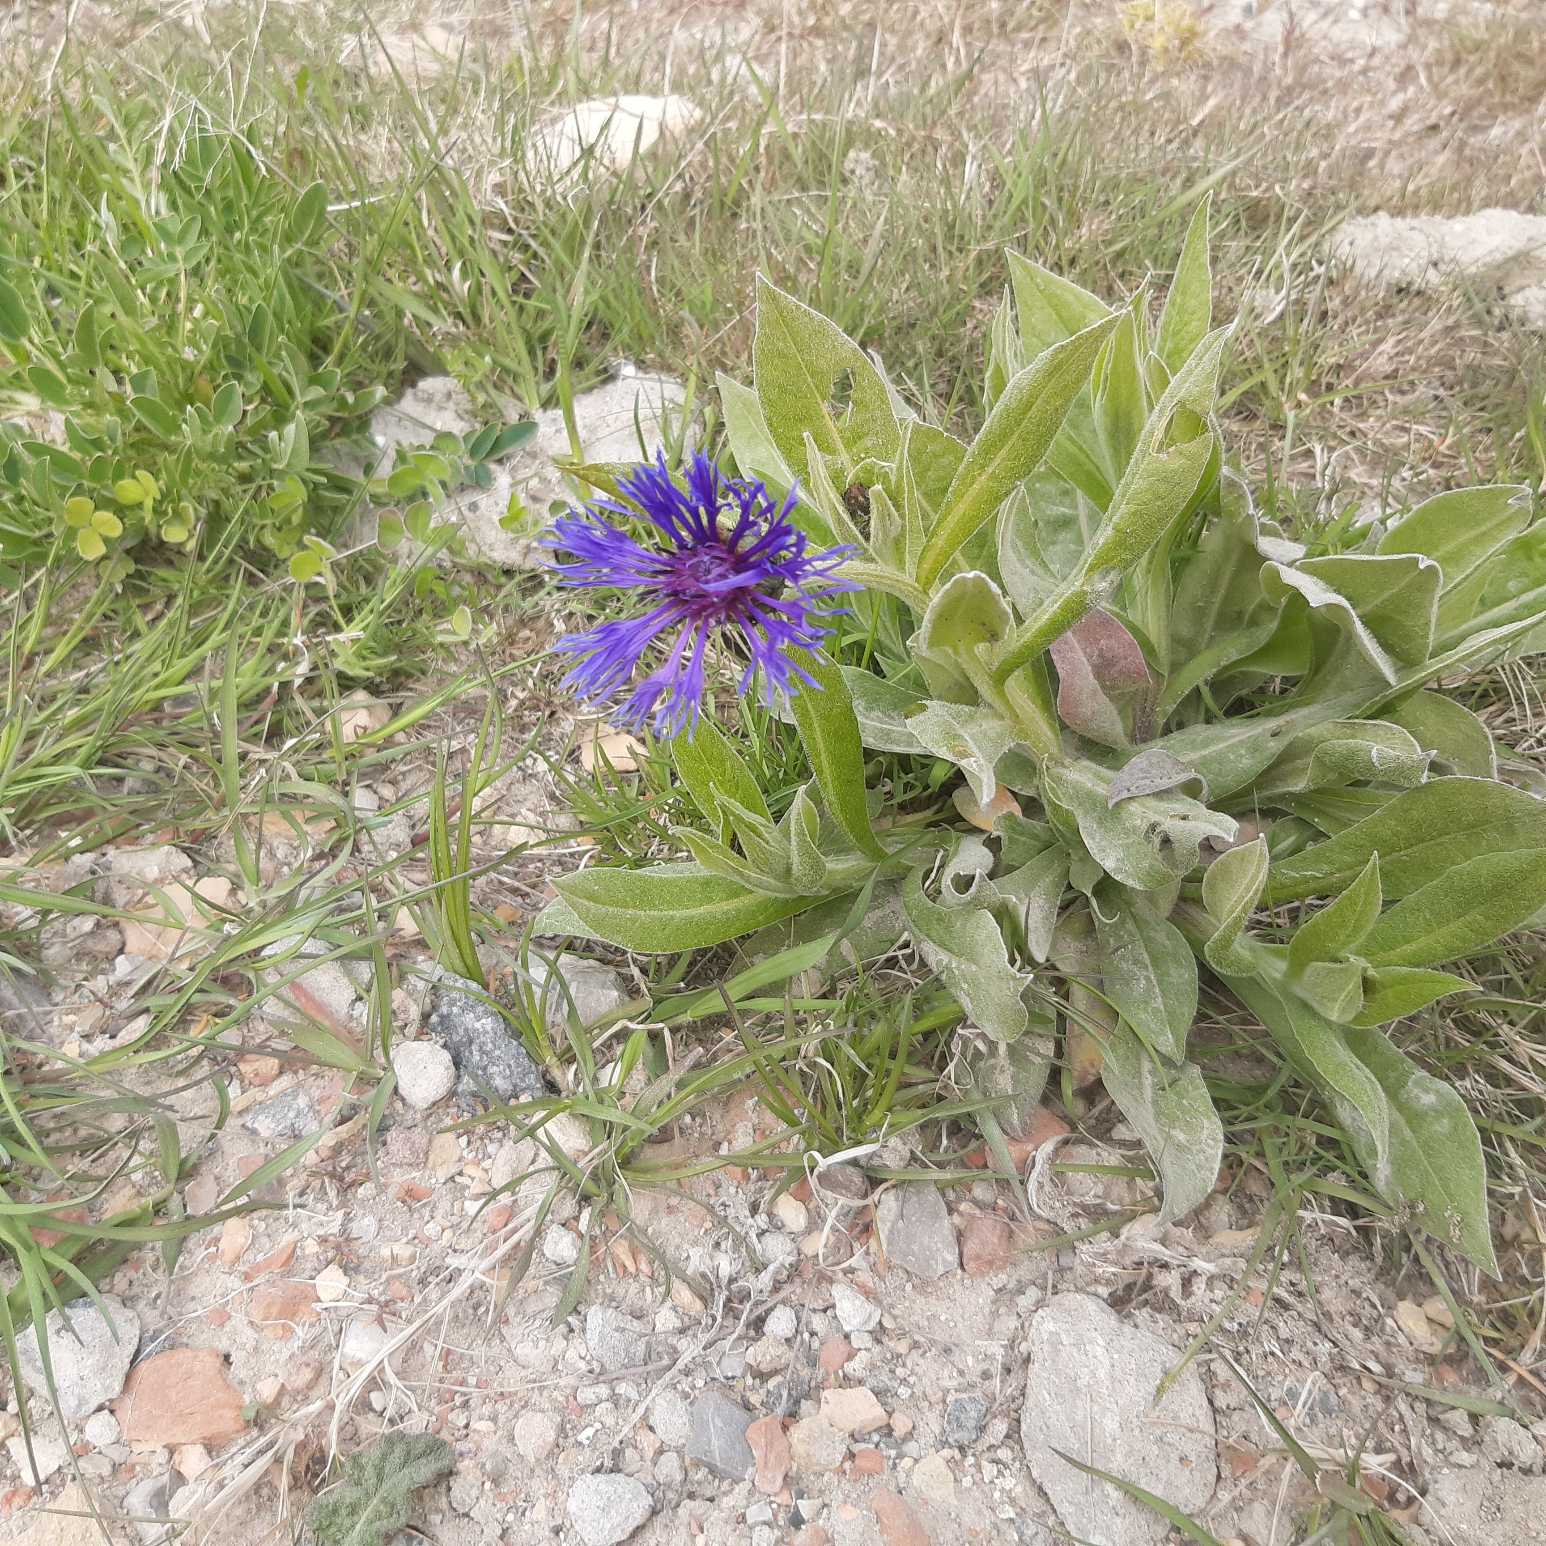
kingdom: Plantae
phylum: Tracheophyta
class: Magnoliopsida
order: Asterales
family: Asteraceae
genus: Centaurea
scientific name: Centaurea montana
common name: Bjerg-knopurt
